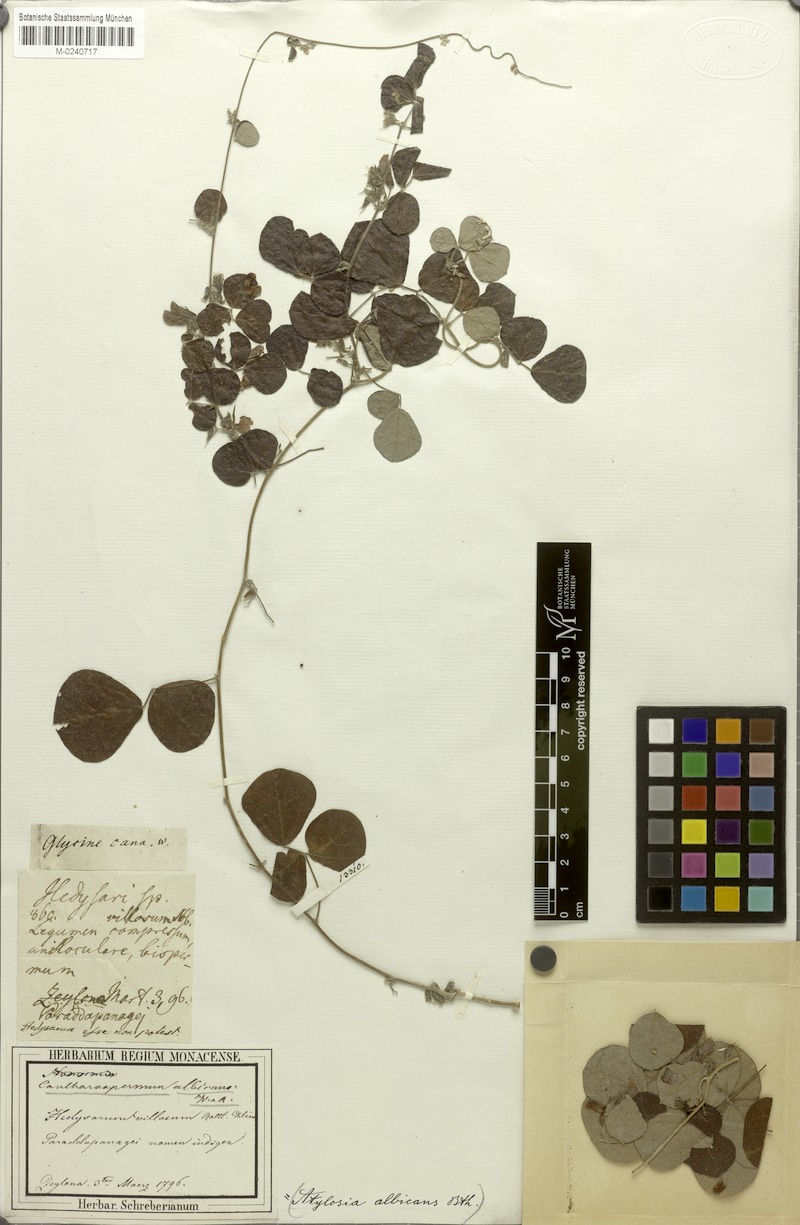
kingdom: Plantae
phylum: Tracheophyta
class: Magnoliopsida
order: Fabales
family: Fabaceae
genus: Cajanus
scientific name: Cajanus albicans
